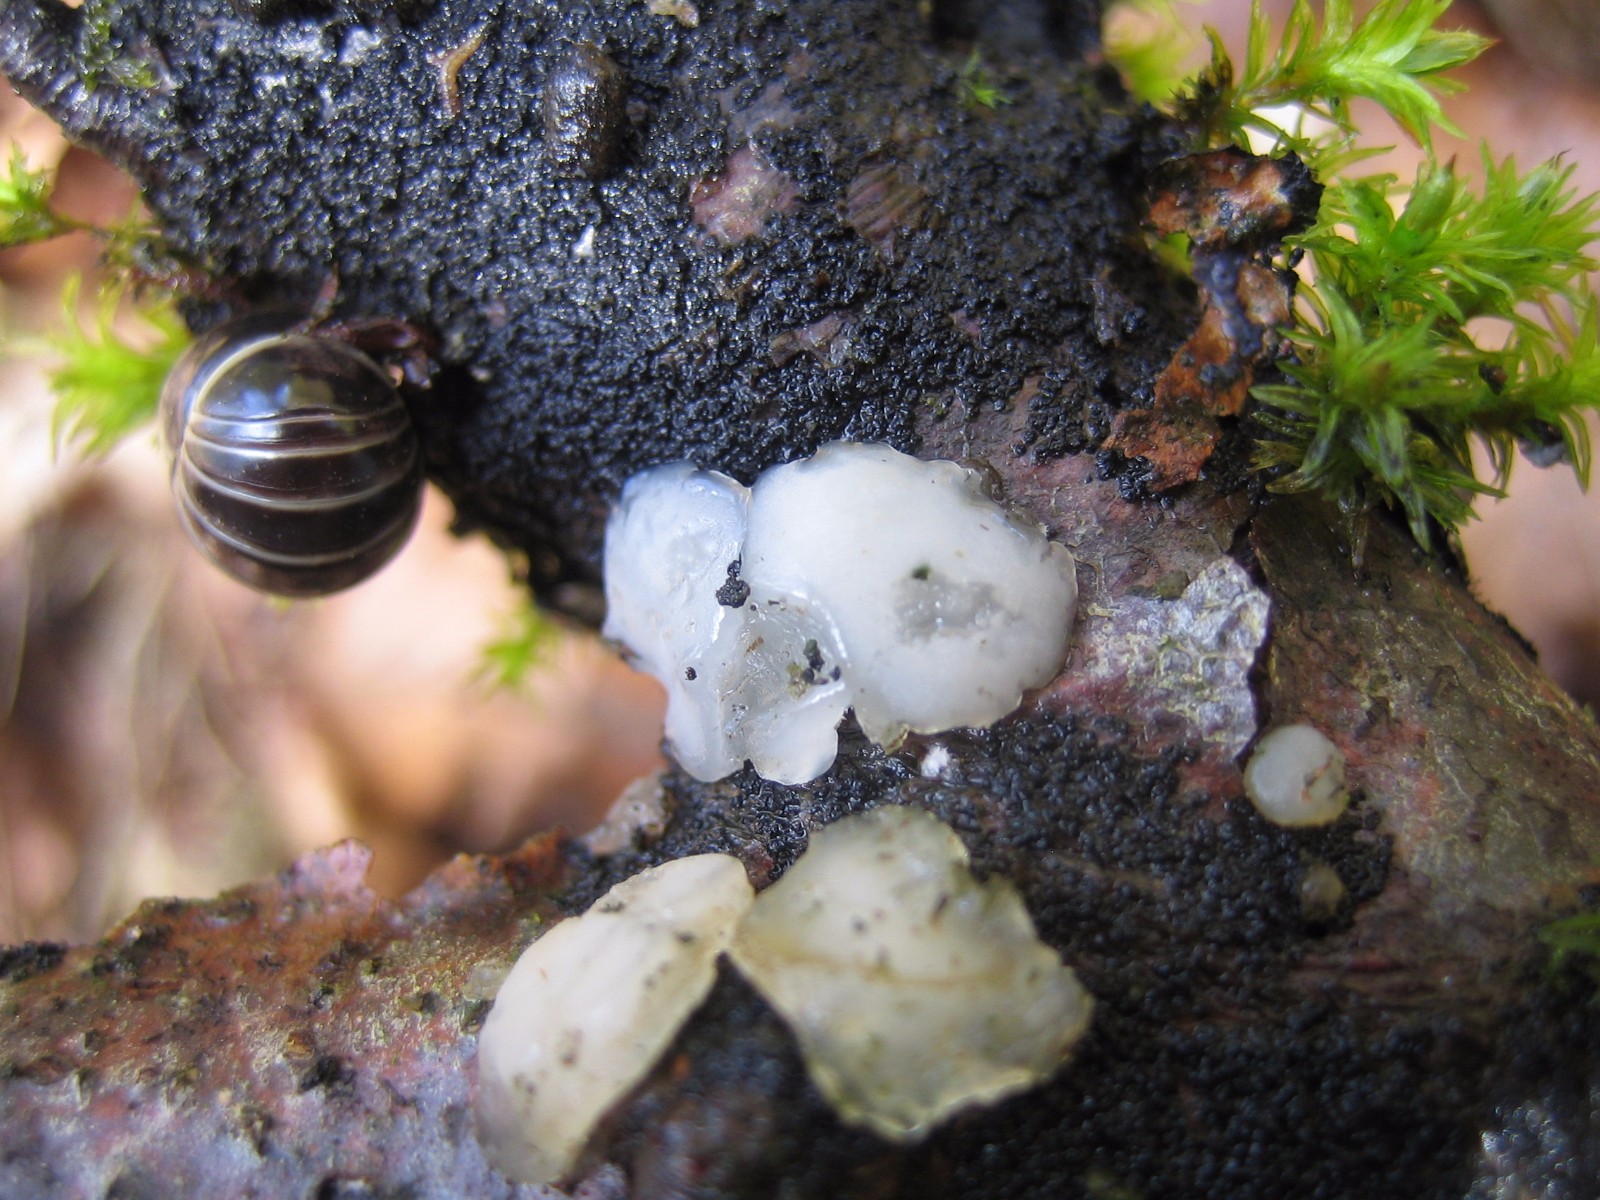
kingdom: Fungi
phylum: Basidiomycota
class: Agaricomycetes
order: Auriculariales
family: Auriculariaceae
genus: Exidia
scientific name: Exidia thuretiana
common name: hvidlig bævretop
